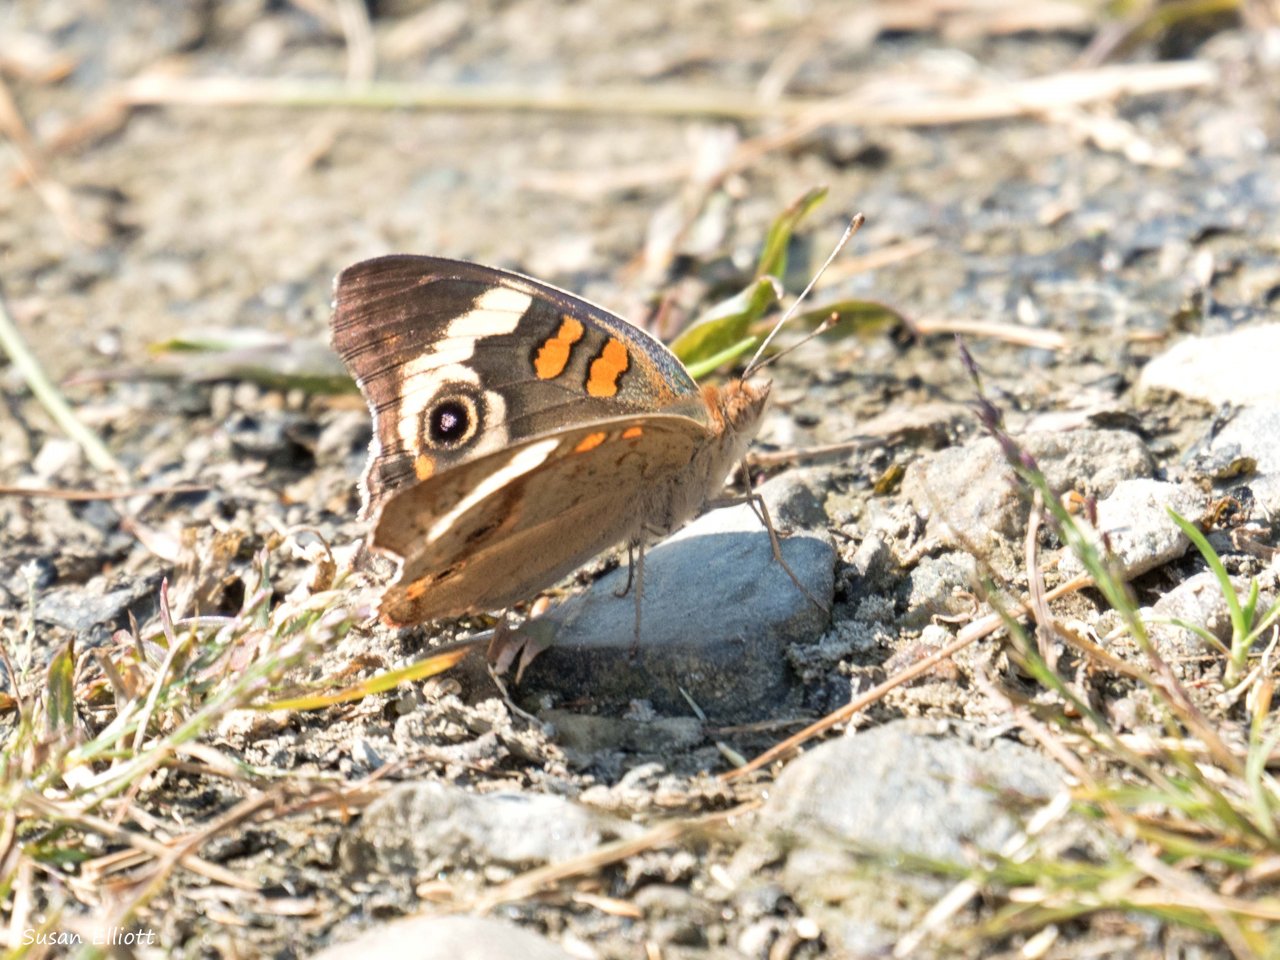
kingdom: Animalia
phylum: Arthropoda
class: Insecta
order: Lepidoptera
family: Nymphalidae
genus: Junonia
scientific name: Junonia coenia
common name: Common Buckeye
